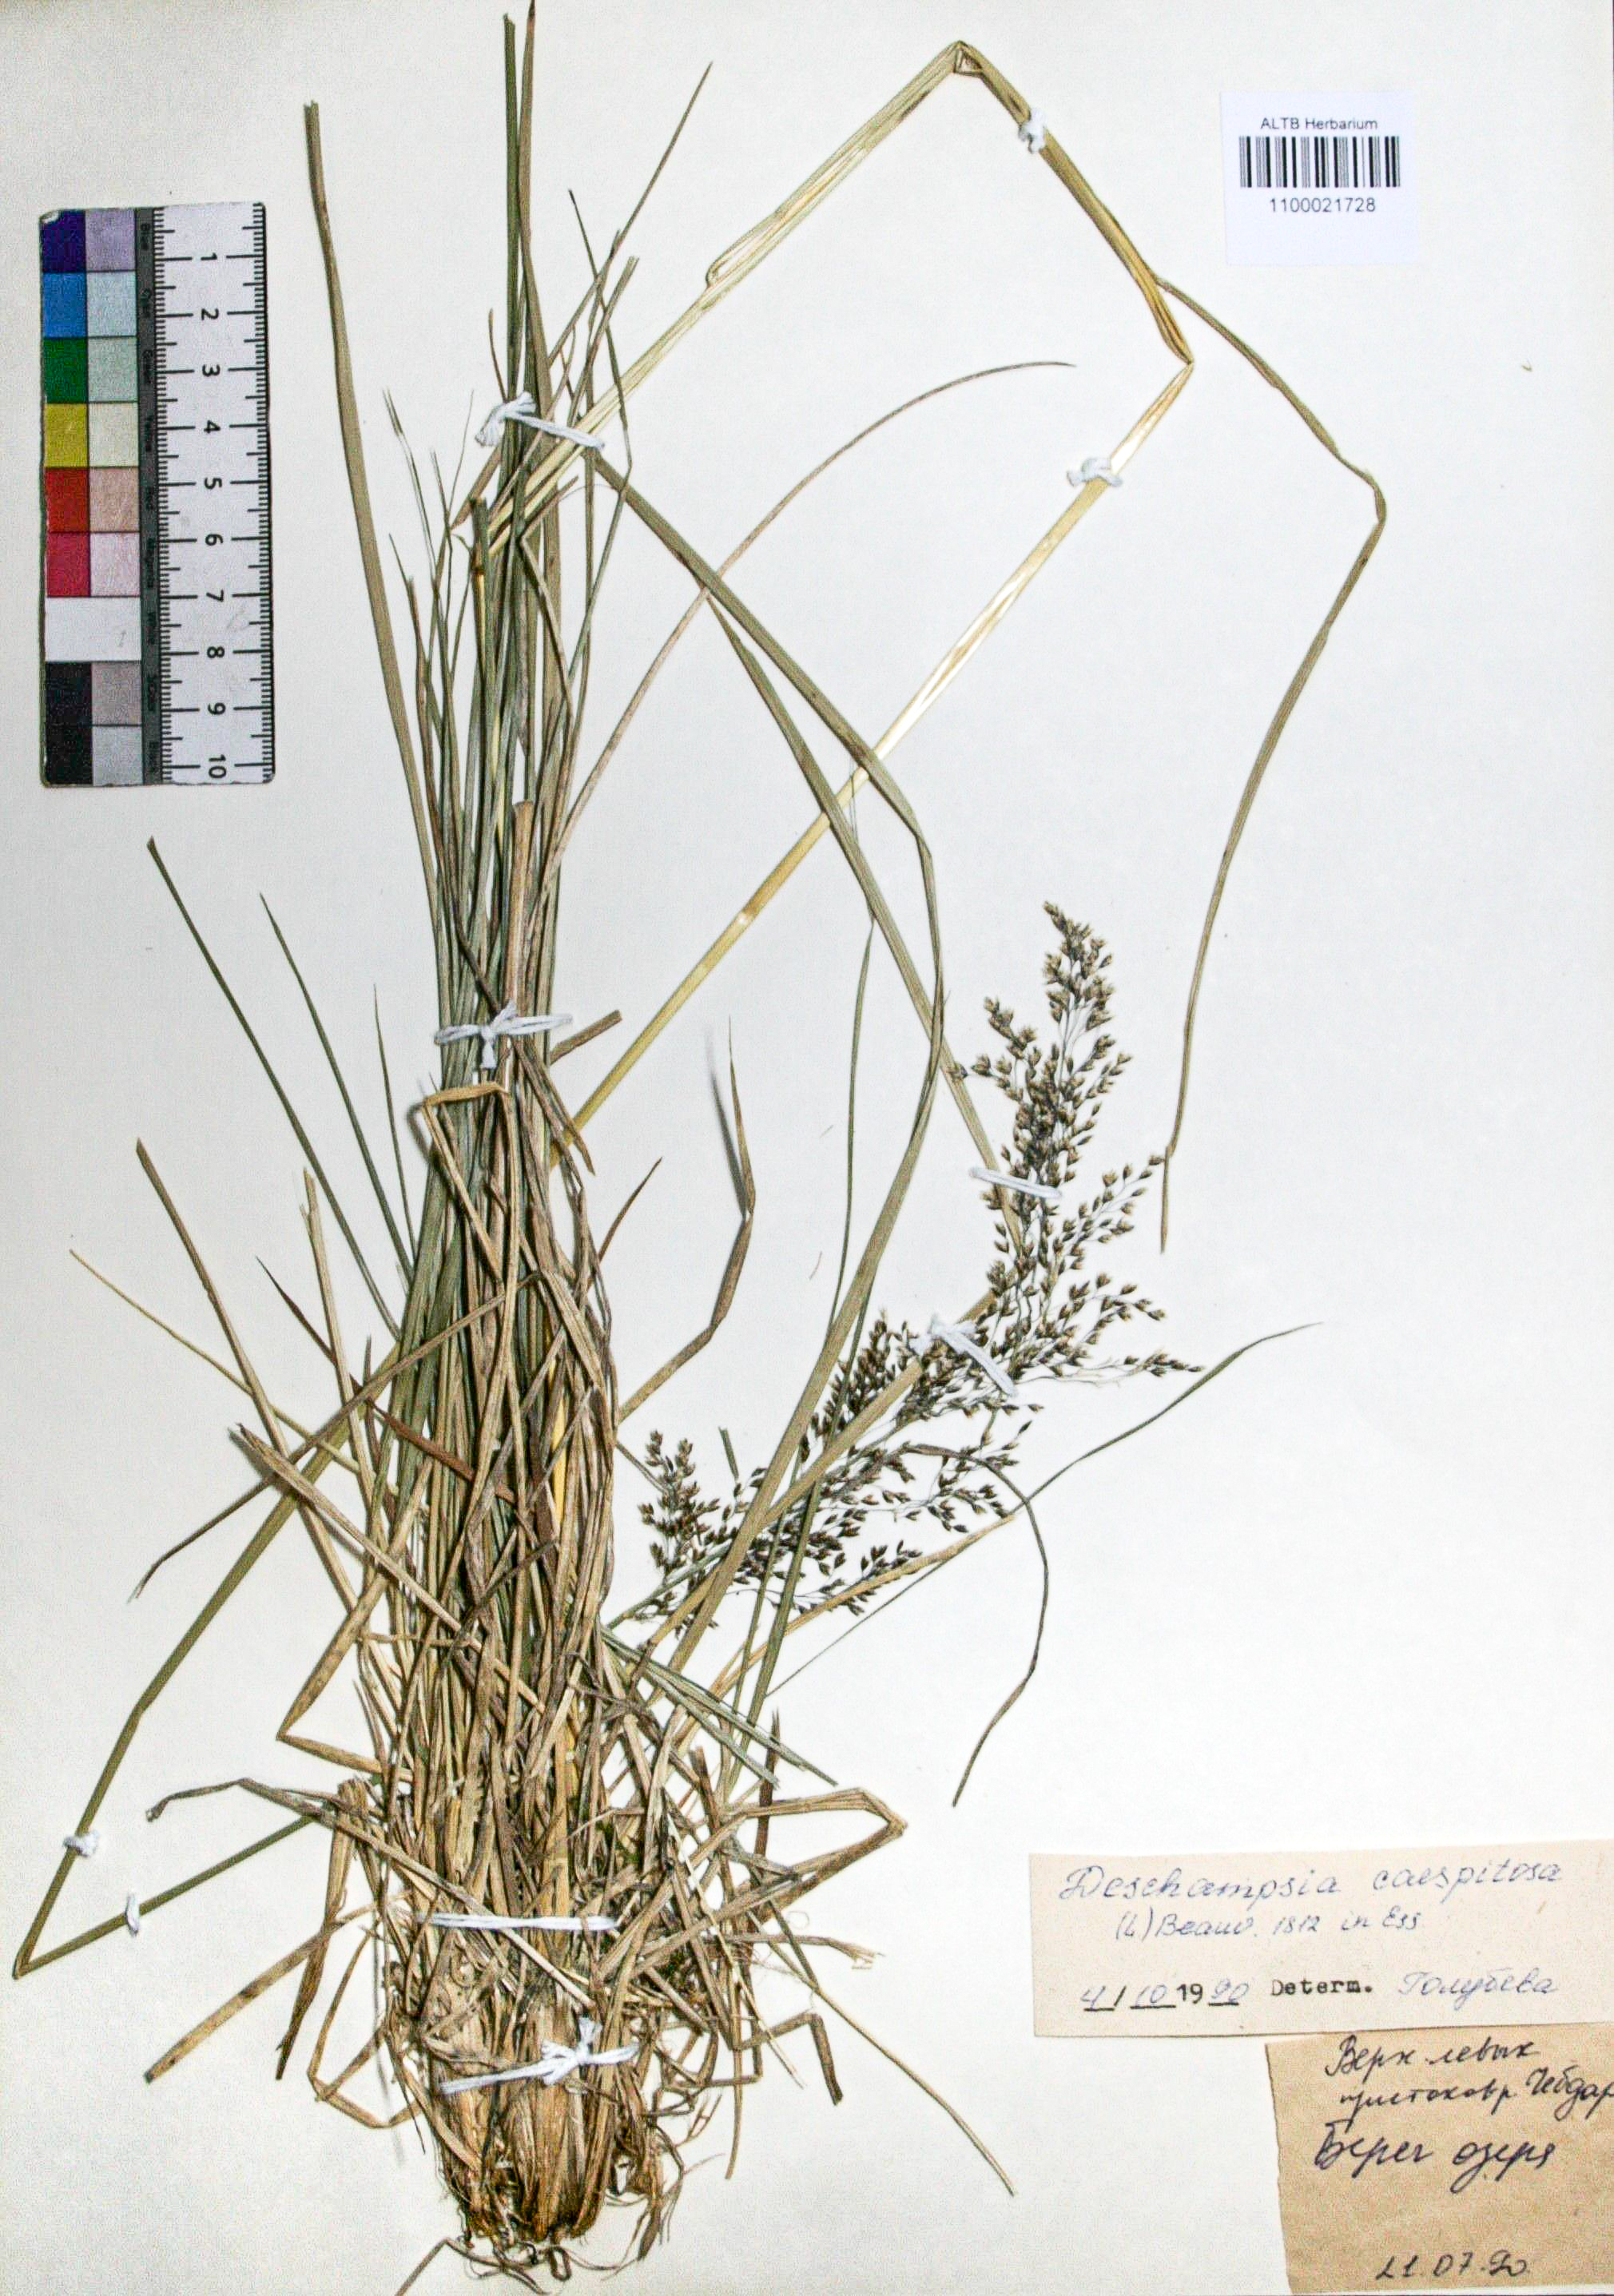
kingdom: Plantae
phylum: Tracheophyta
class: Liliopsida
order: Poales
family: Poaceae
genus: Deschampsia
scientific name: Deschampsia cespitosa
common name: Tufted hair-grass
